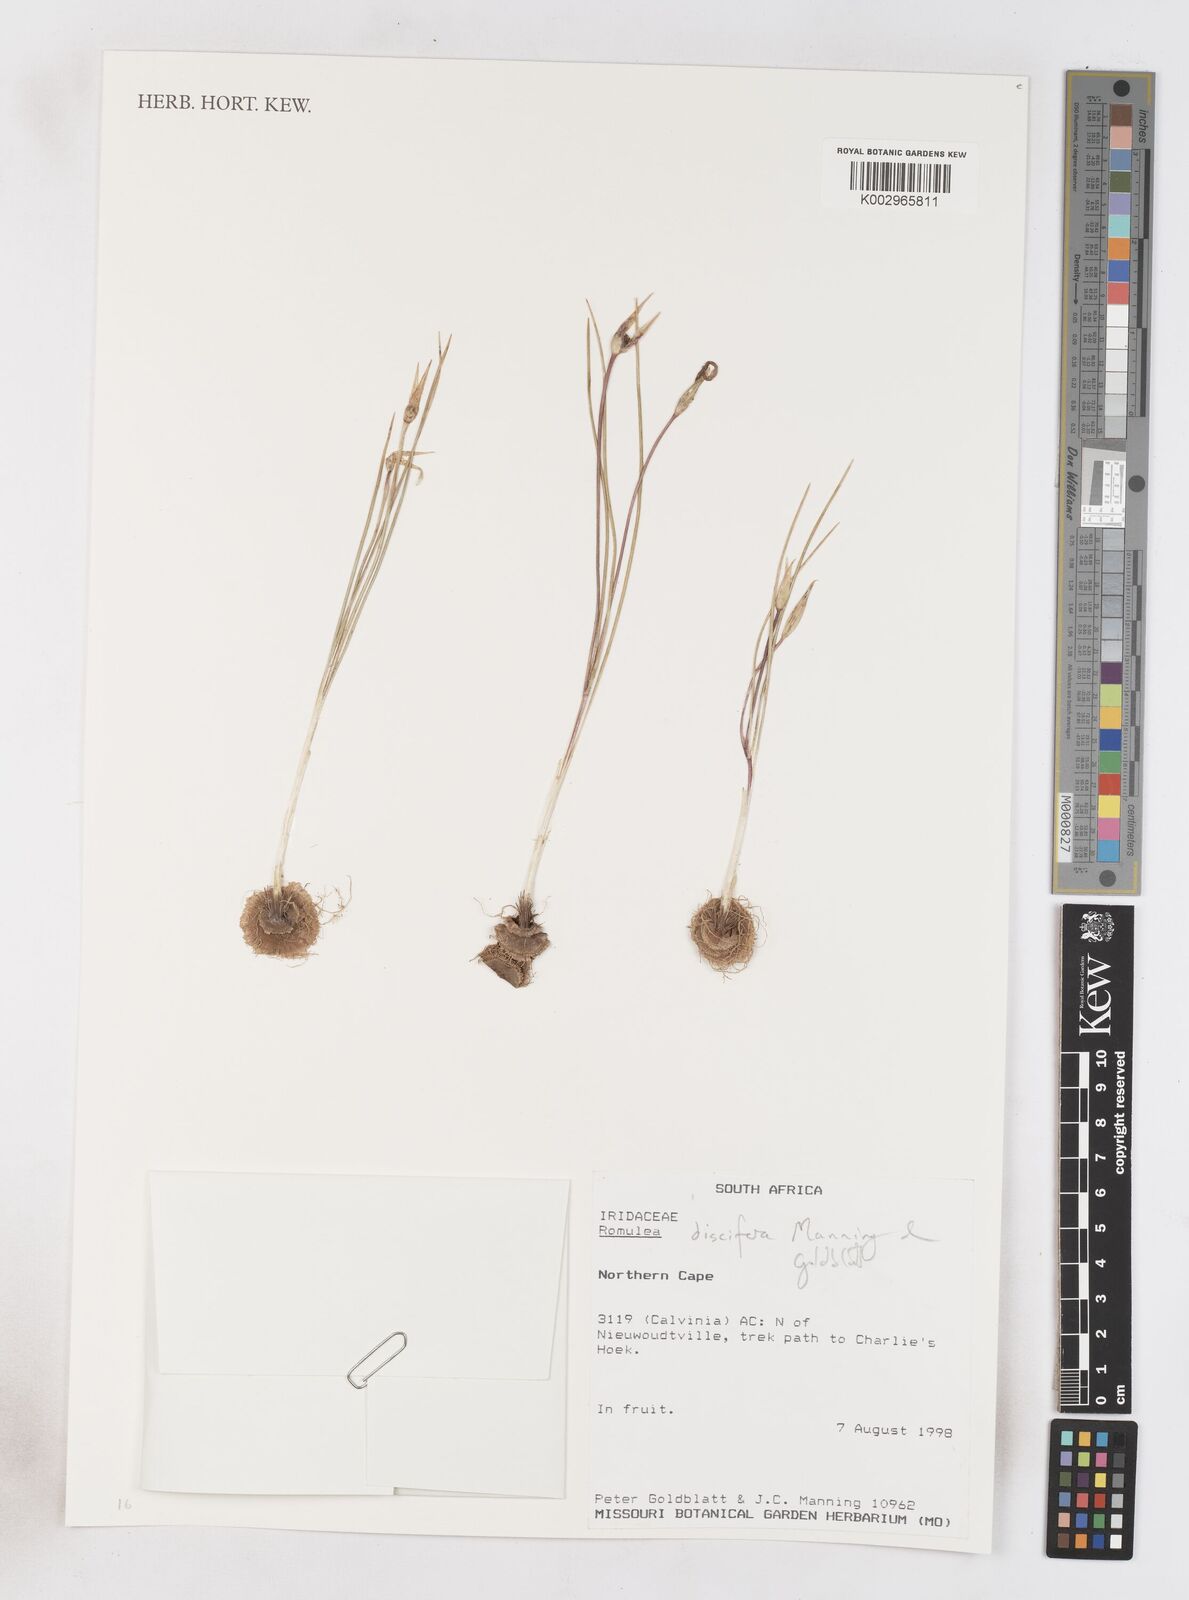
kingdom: Plantae
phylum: Tracheophyta
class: Liliopsida
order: Asparagales
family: Iridaceae
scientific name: Iridaceae
